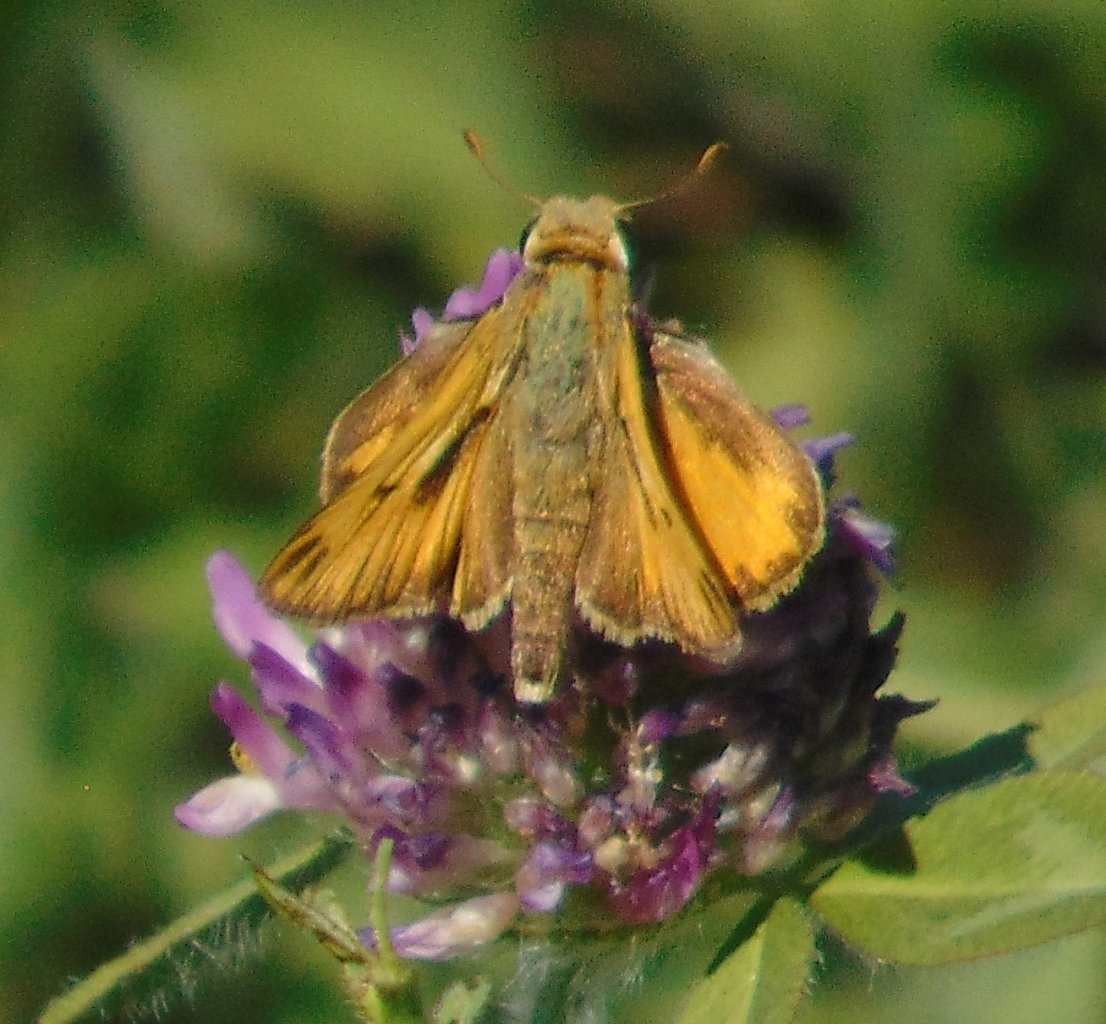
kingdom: Animalia
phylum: Arthropoda
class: Insecta
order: Lepidoptera
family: Hesperiidae
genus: Hylephila
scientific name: Hylephila phyleus
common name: Fiery Skipper
